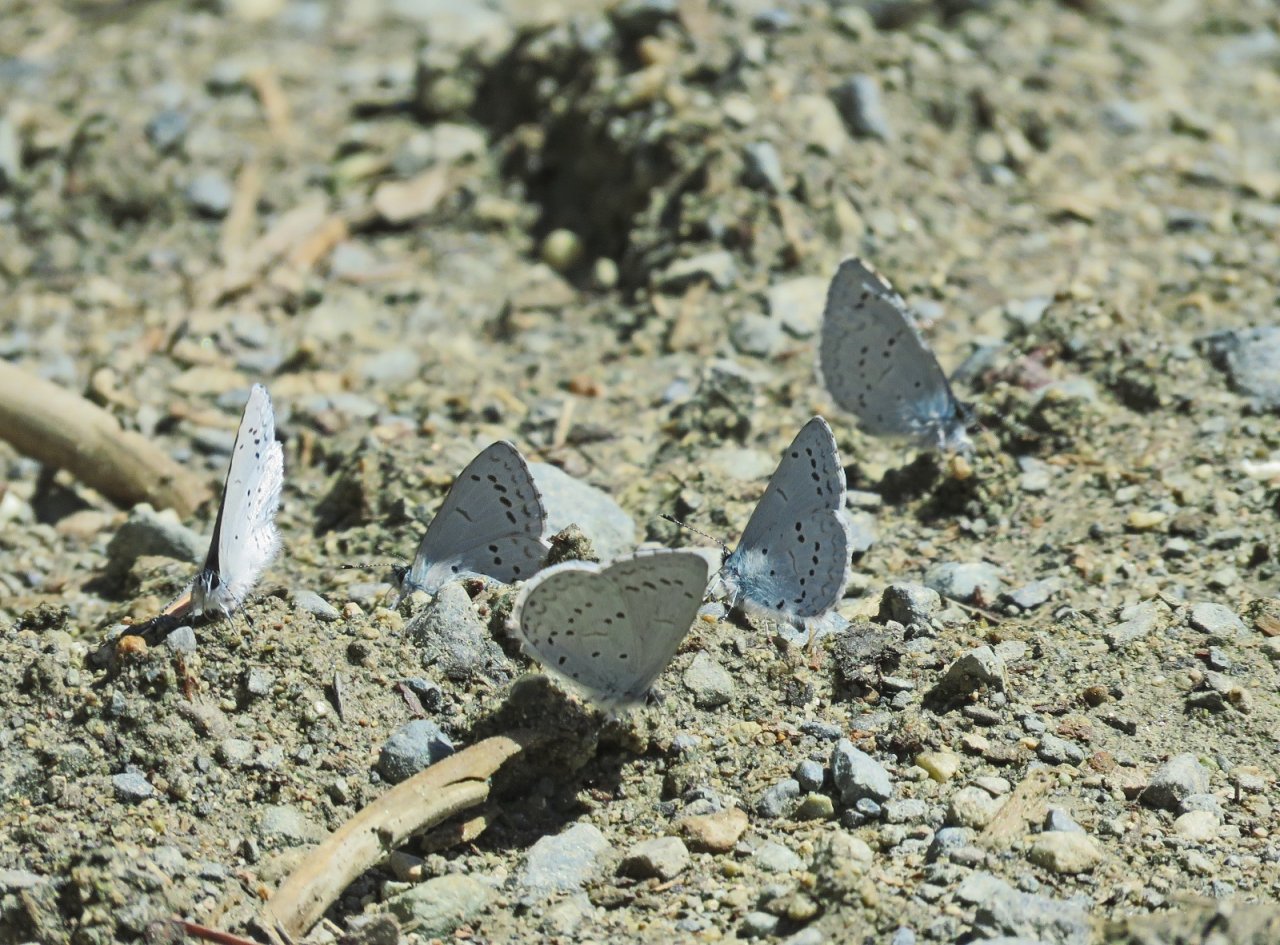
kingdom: Animalia
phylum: Arthropoda
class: Insecta
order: Lepidoptera
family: Lycaenidae
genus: Celastrina
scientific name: Celastrina ladon
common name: Echo Azure
